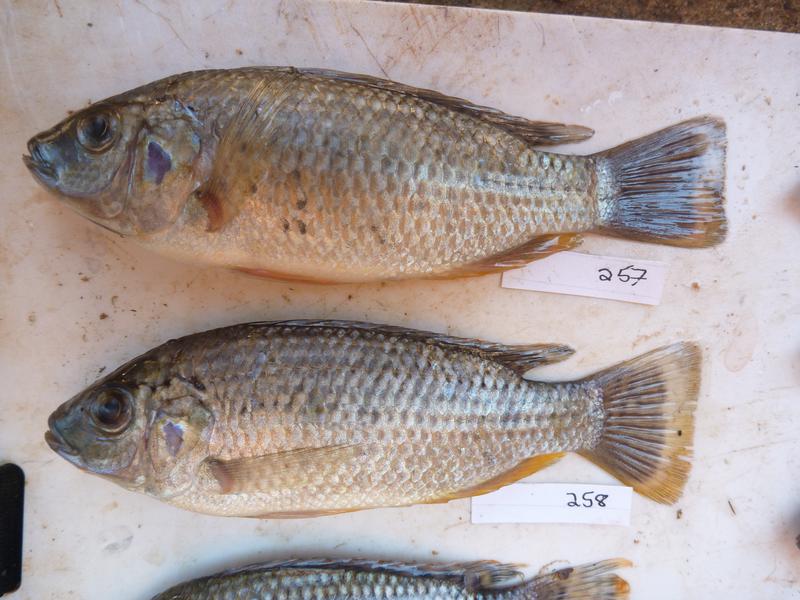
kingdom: Animalia
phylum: Chordata
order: Perciformes
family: Cichlidae
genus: Oreochromis
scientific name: Oreochromis
